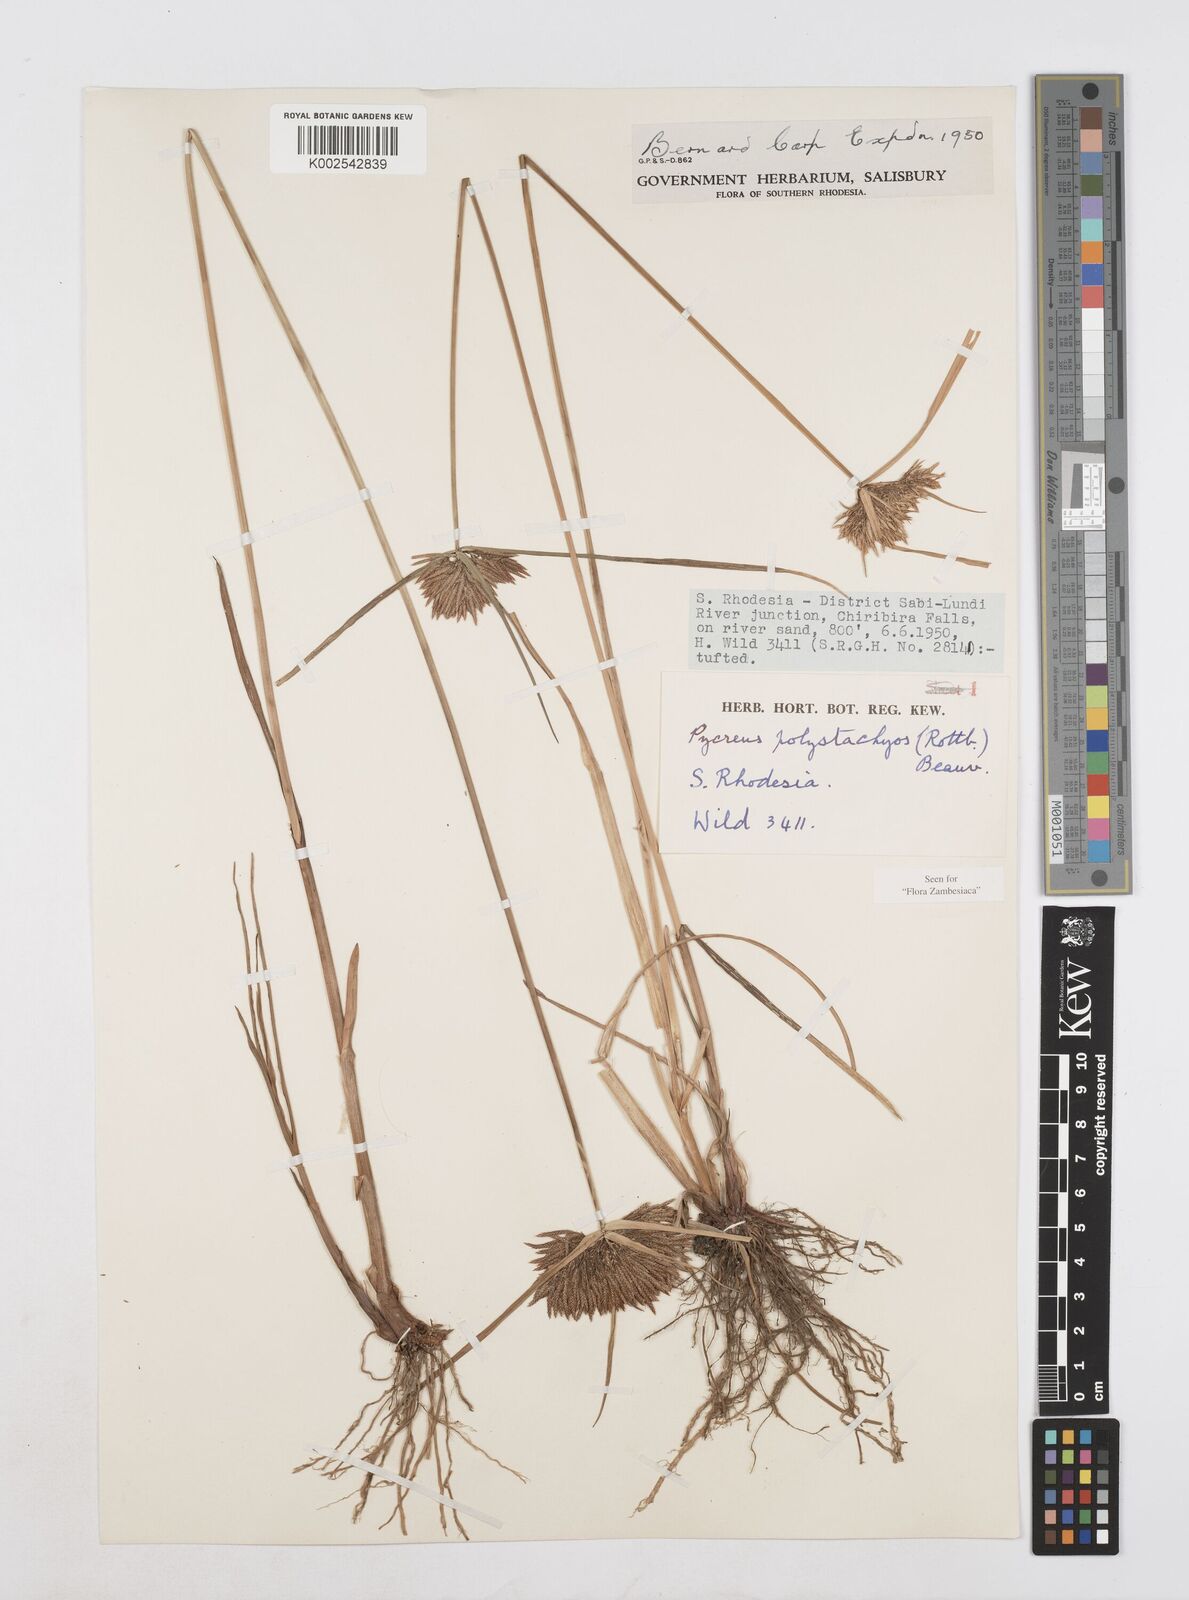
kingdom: Plantae
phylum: Tracheophyta
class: Liliopsida
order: Poales
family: Cyperaceae
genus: Cyperus
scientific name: Cyperus polystachyos
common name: Bunchy flat sedge
